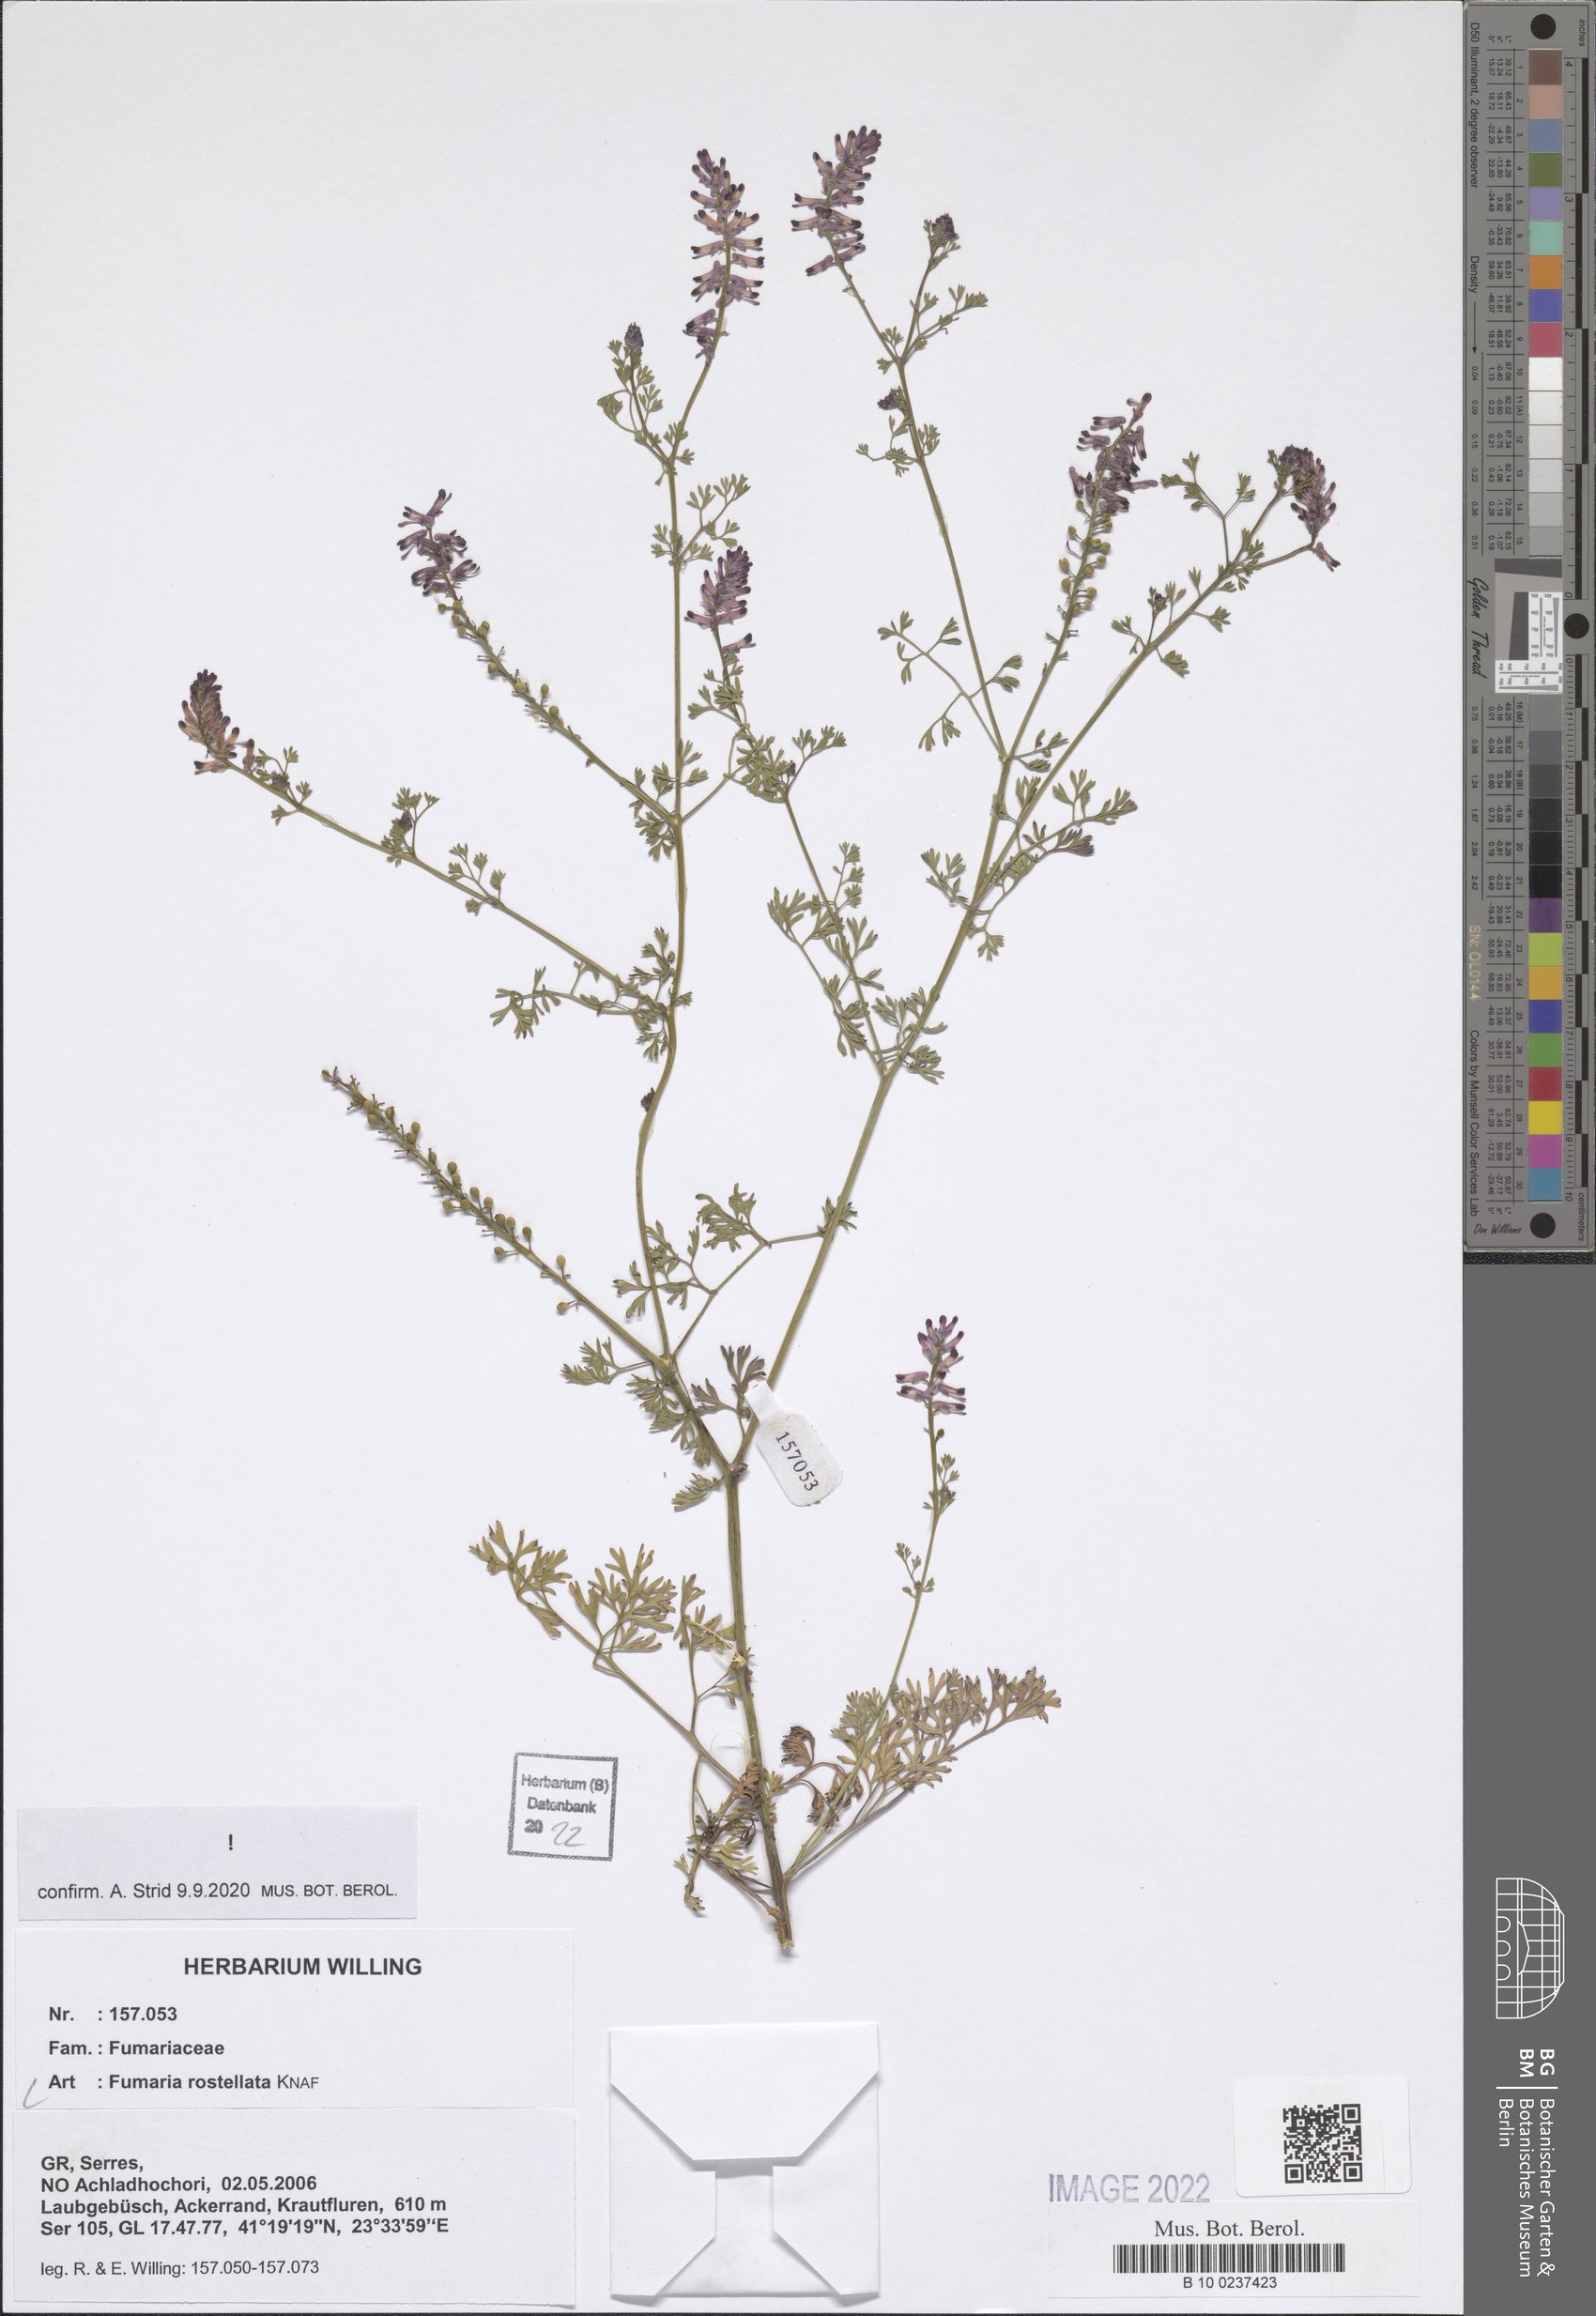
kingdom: Plantae
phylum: Tracheophyta
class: Magnoliopsida
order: Ranunculales
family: Papaveraceae
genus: Fumaria
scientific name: Fumaria rostellata
